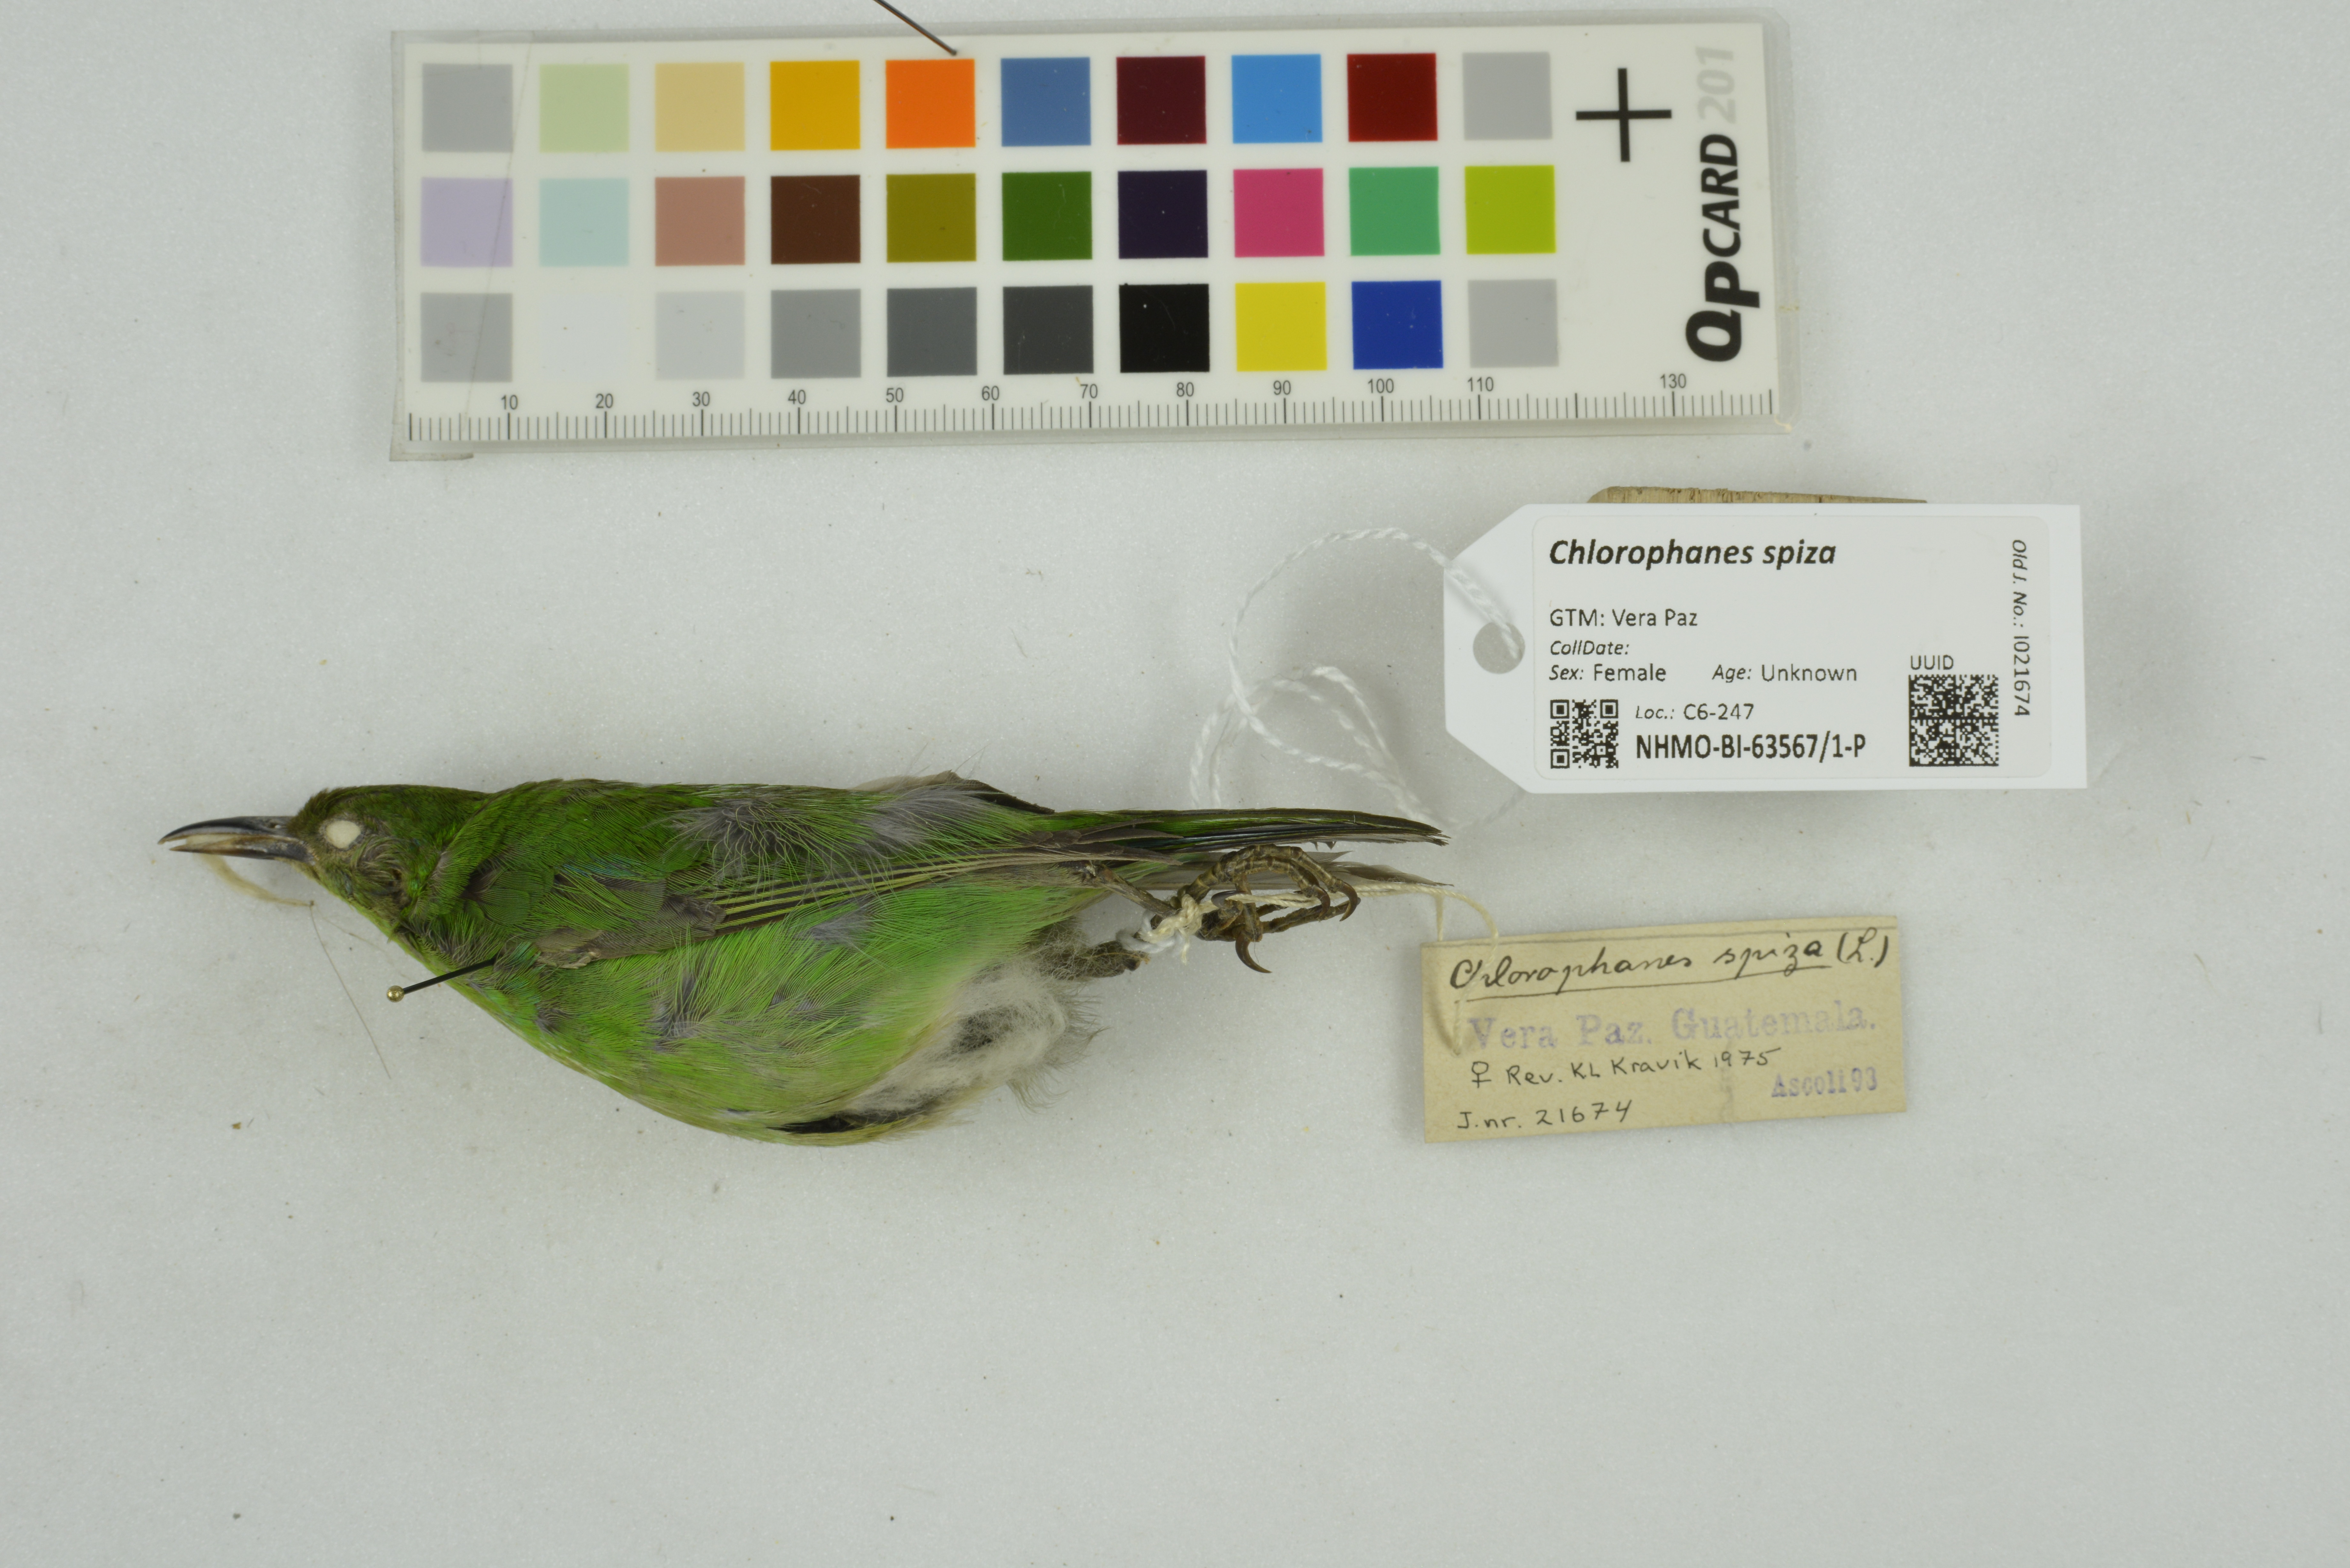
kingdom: Animalia
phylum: Chordata
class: Aves
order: Passeriformes
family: Thraupidae
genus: Chlorophanes
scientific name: Chlorophanes spiza
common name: Green honeycreeper
